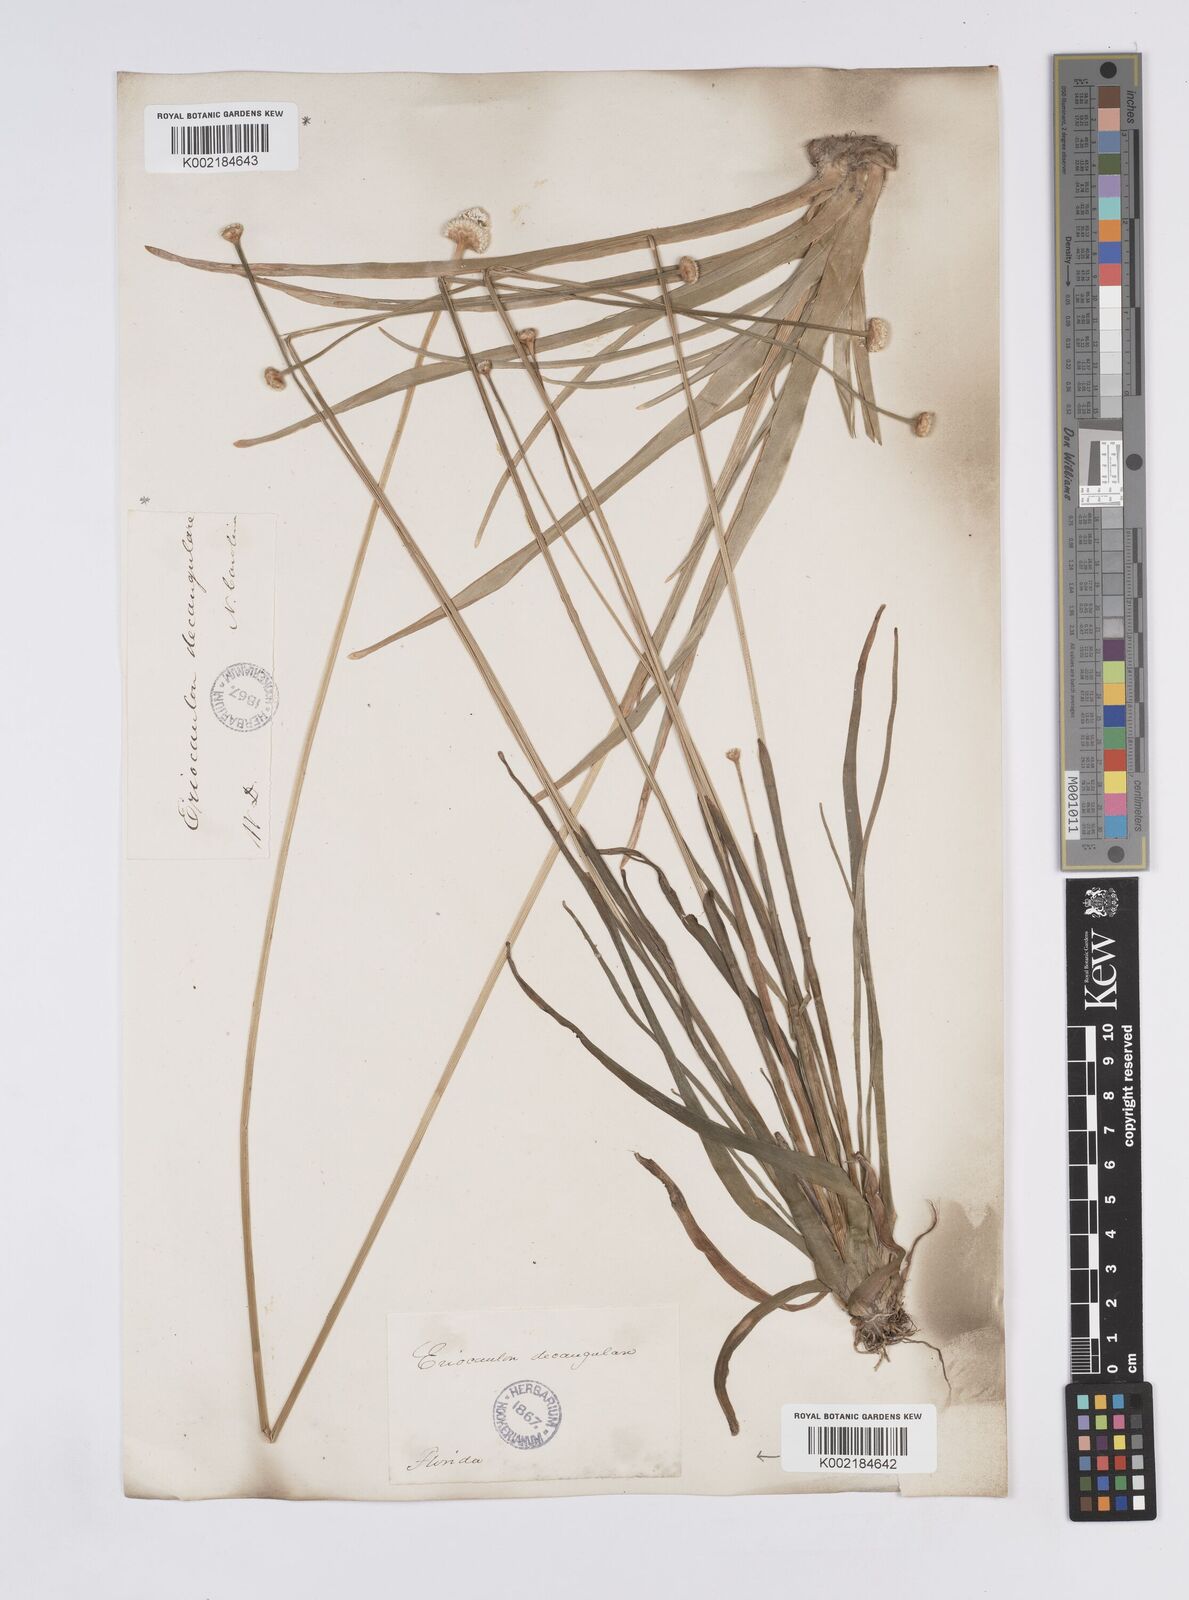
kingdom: Plantae
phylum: Tracheophyta
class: Liliopsida
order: Poales
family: Eriocaulaceae
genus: Eriocaulon
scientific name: Eriocaulon decangulare
